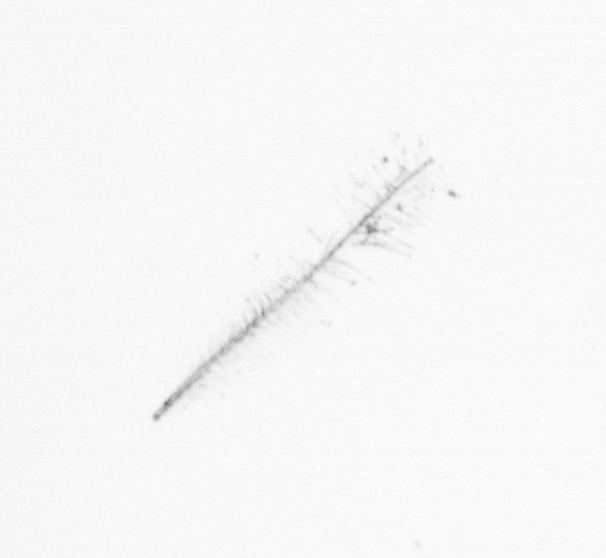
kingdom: Chromista
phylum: Ochrophyta
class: Bacillariophyceae
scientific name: Bacillariophyceae
